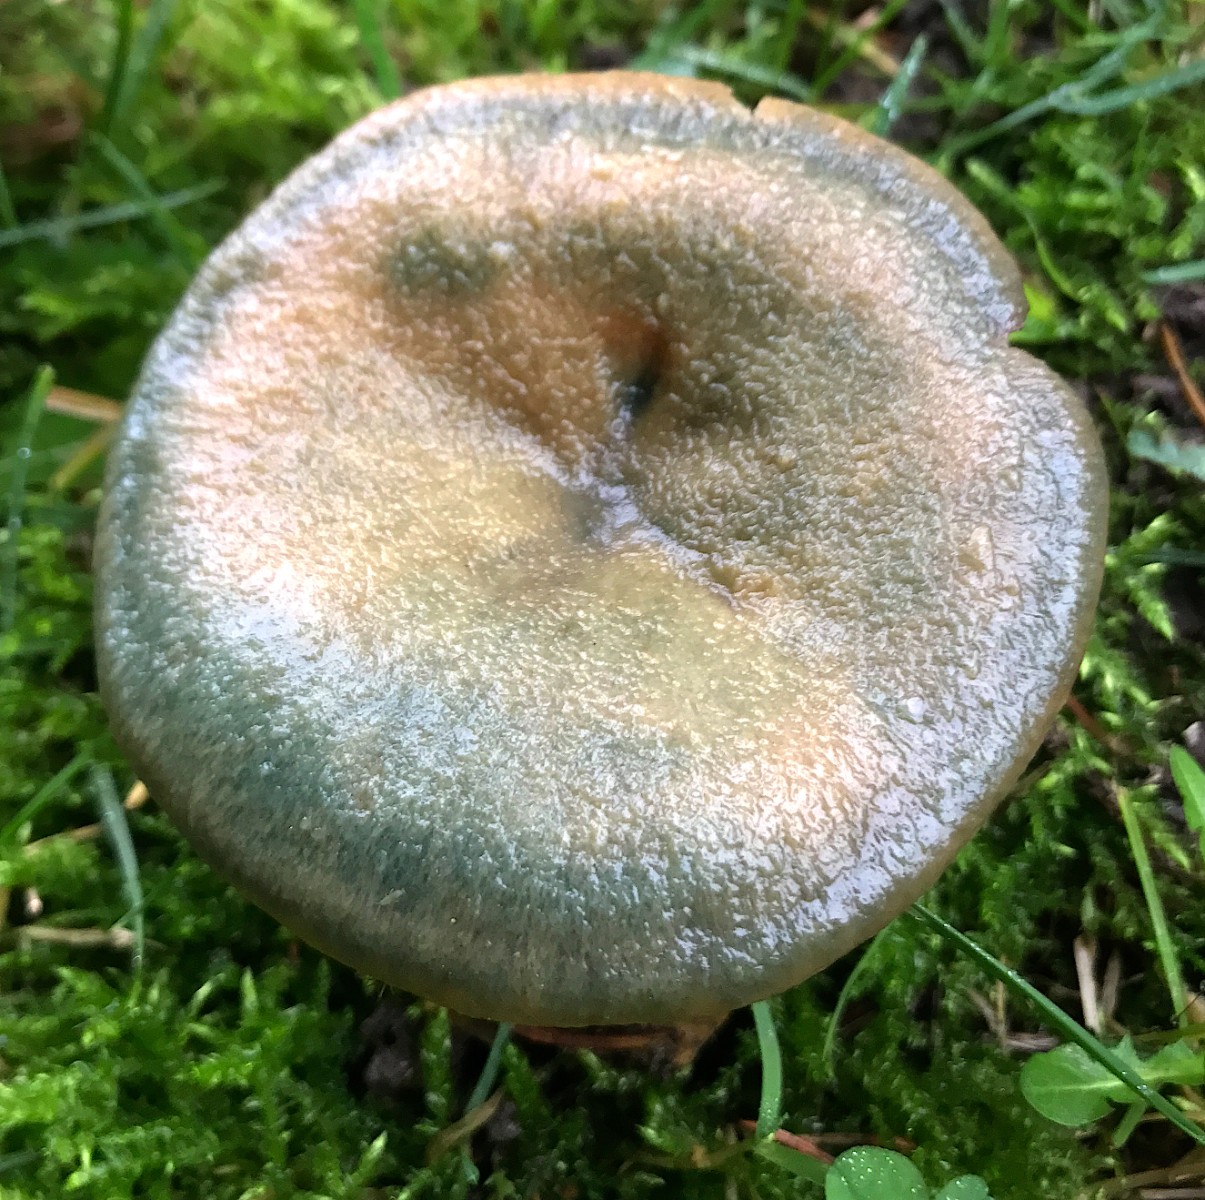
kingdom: Fungi
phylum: Basidiomycota
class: Agaricomycetes
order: Russulales
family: Russulaceae
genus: Lactarius
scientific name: Lactarius deterrimus
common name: gran-mælkehat
